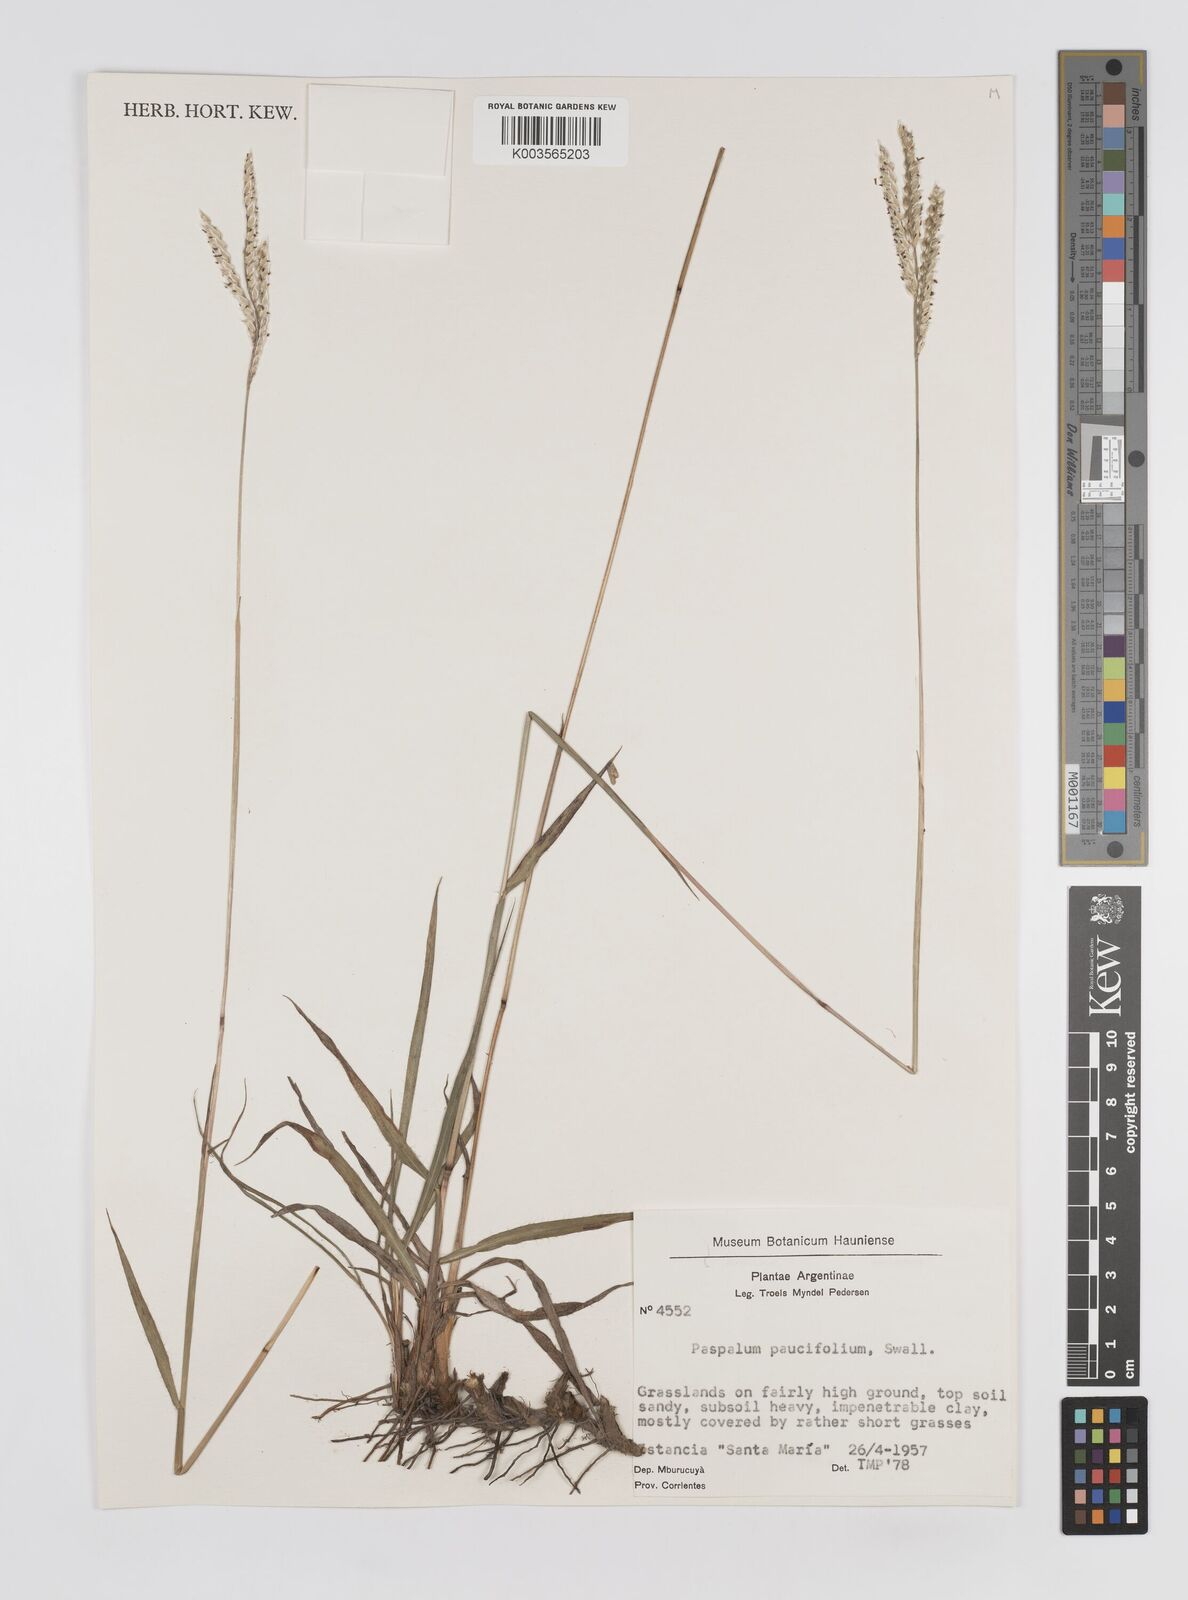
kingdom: Plantae
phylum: Tracheophyta
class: Liliopsida
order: Poales
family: Poaceae
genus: Paspalum
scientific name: Paspalum paucifolium
